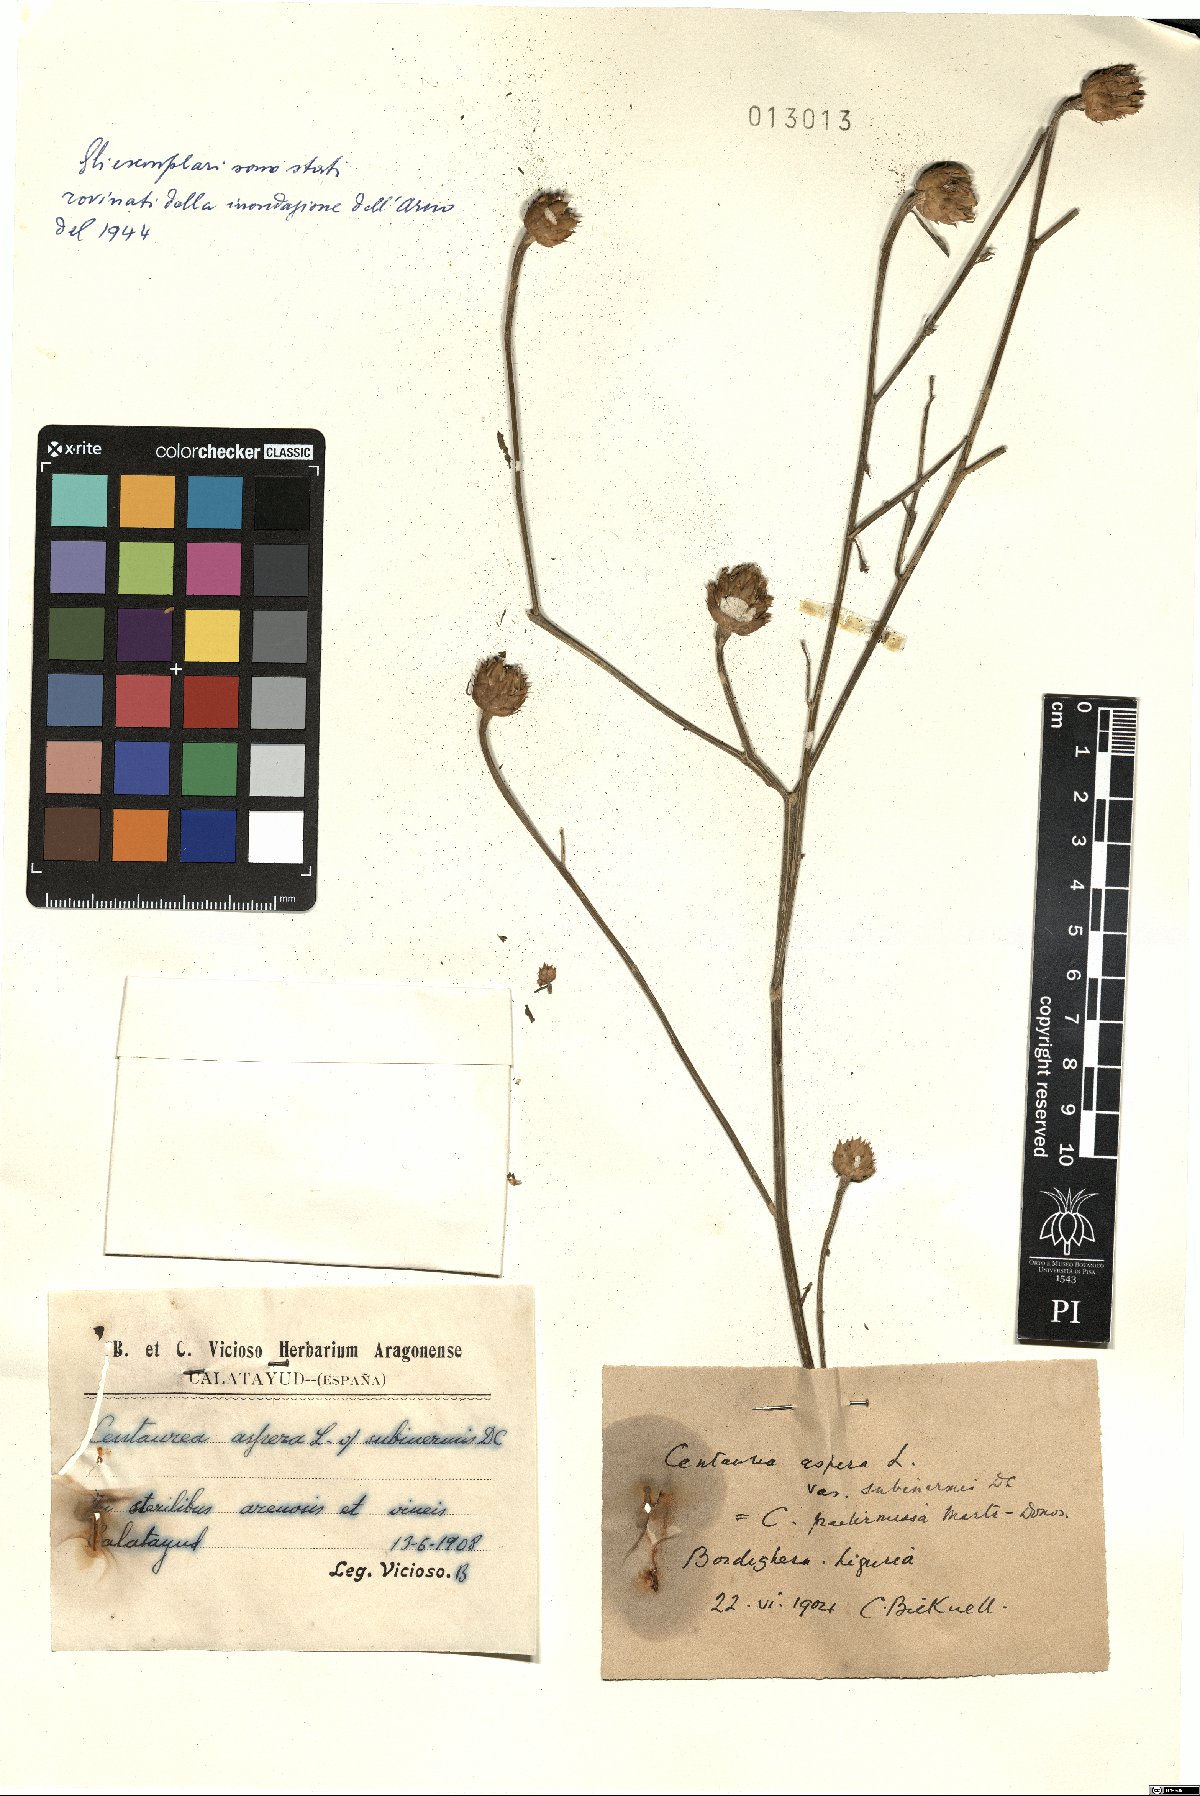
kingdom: Plantae
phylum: Tracheophyta
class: Magnoliopsida
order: Asterales
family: Asteraceae
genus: Centaurea
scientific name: Centaurea aspera
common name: Rough star-thistle
